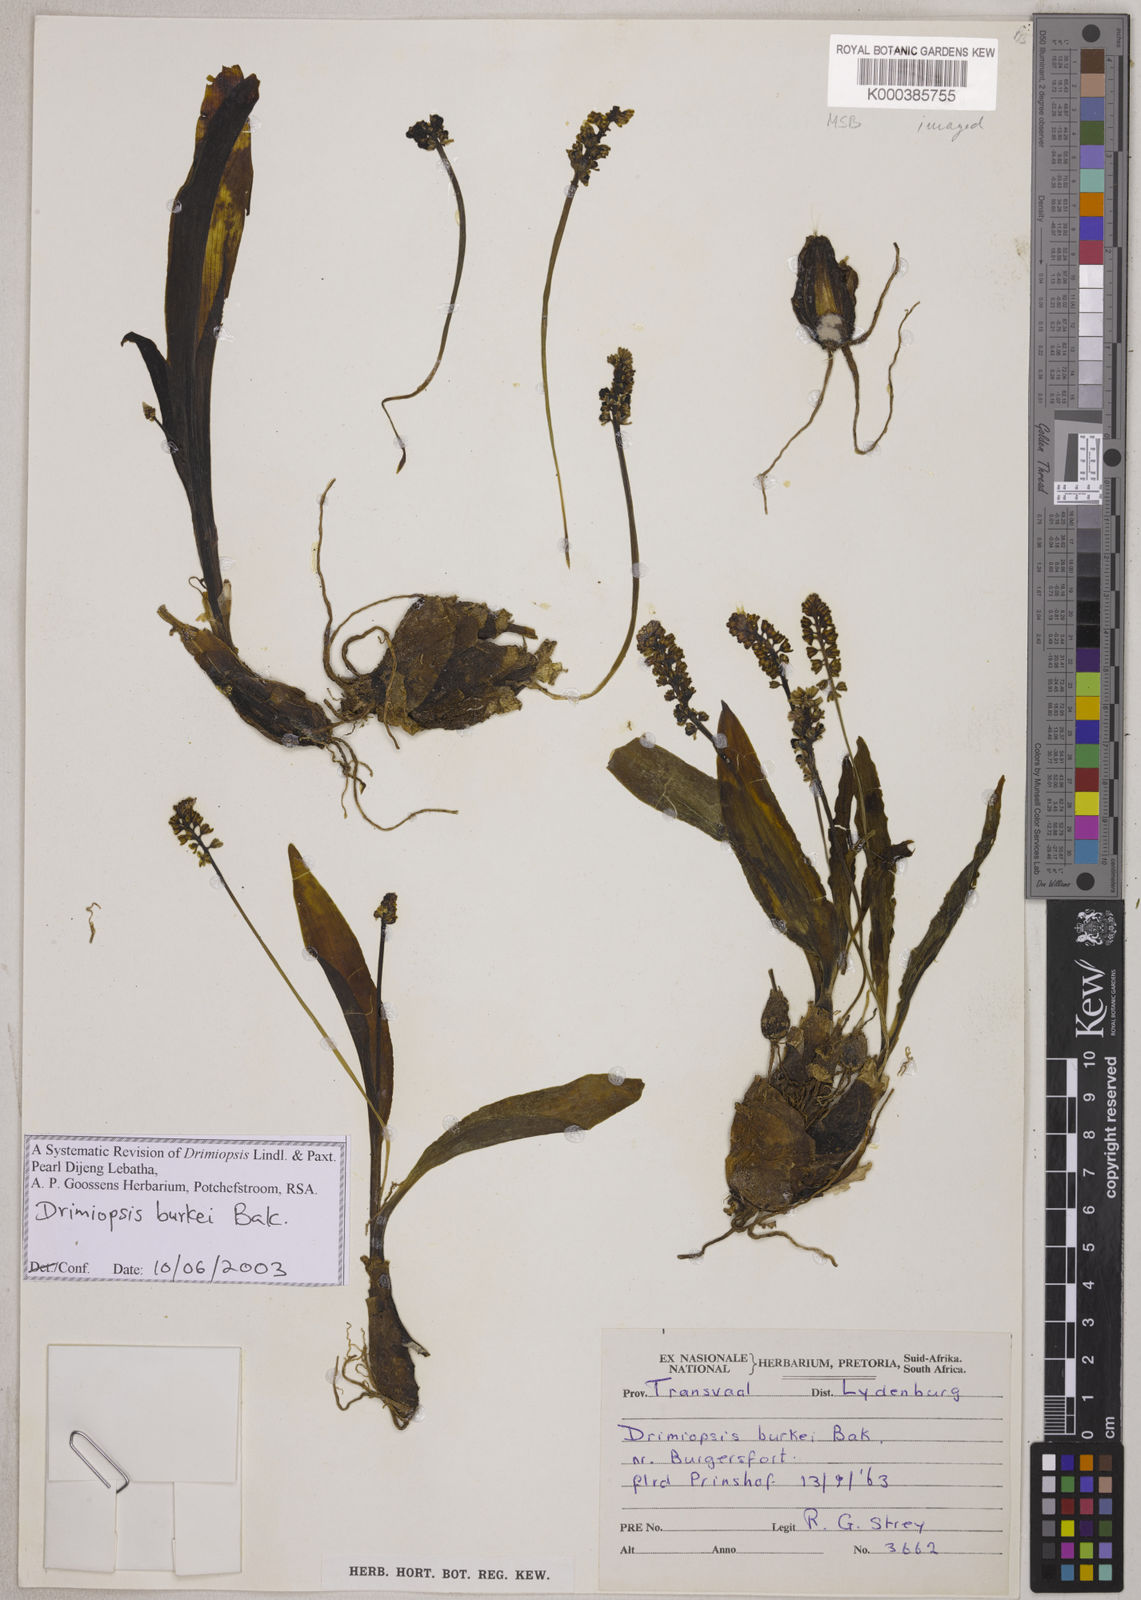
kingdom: Plantae
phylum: Tracheophyta
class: Liliopsida
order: Asparagales
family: Asparagaceae
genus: Drimiopsis
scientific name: Drimiopsis burkei
